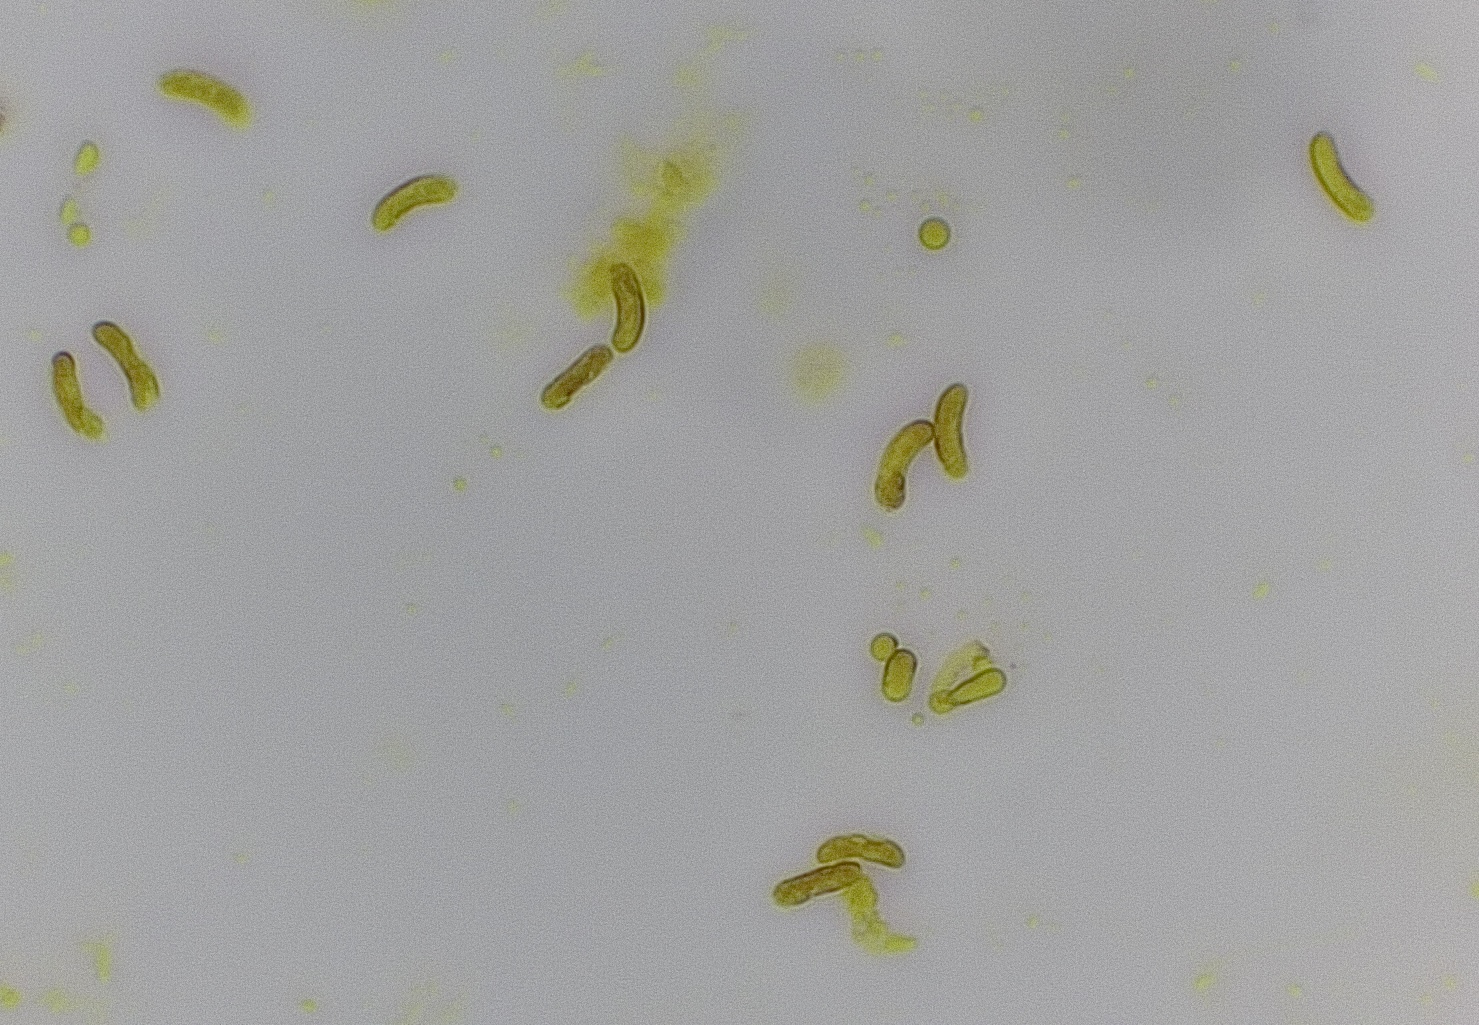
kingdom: Fungi
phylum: Basidiomycota
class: Agaricomycetes
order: Polyporales
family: Irpicaceae
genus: Ceriporia
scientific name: Ceriporia
